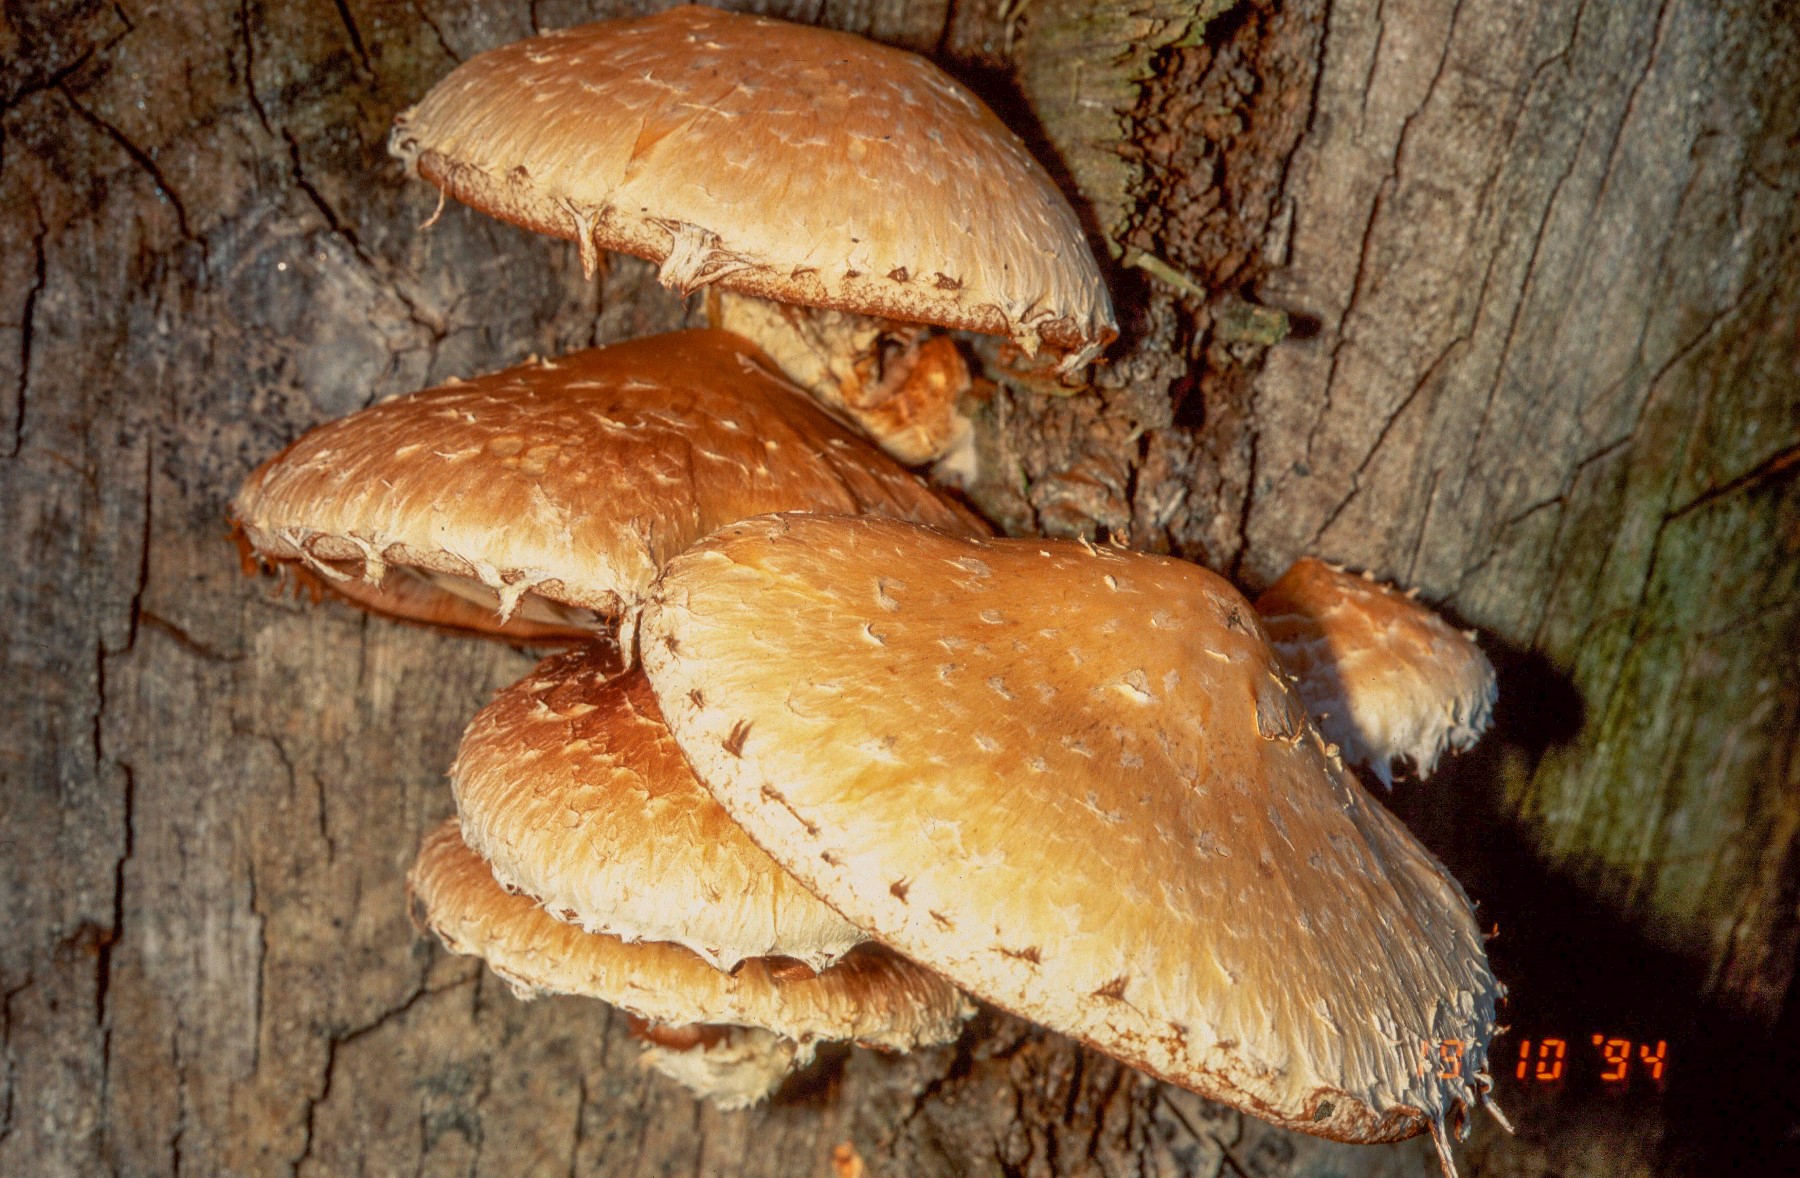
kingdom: Fungi
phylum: Basidiomycota
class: Agaricomycetes
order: Agaricales
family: Strophariaceae
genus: Pholiota
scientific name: Pholiota populnea
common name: poppel-kæmpeskælhat
